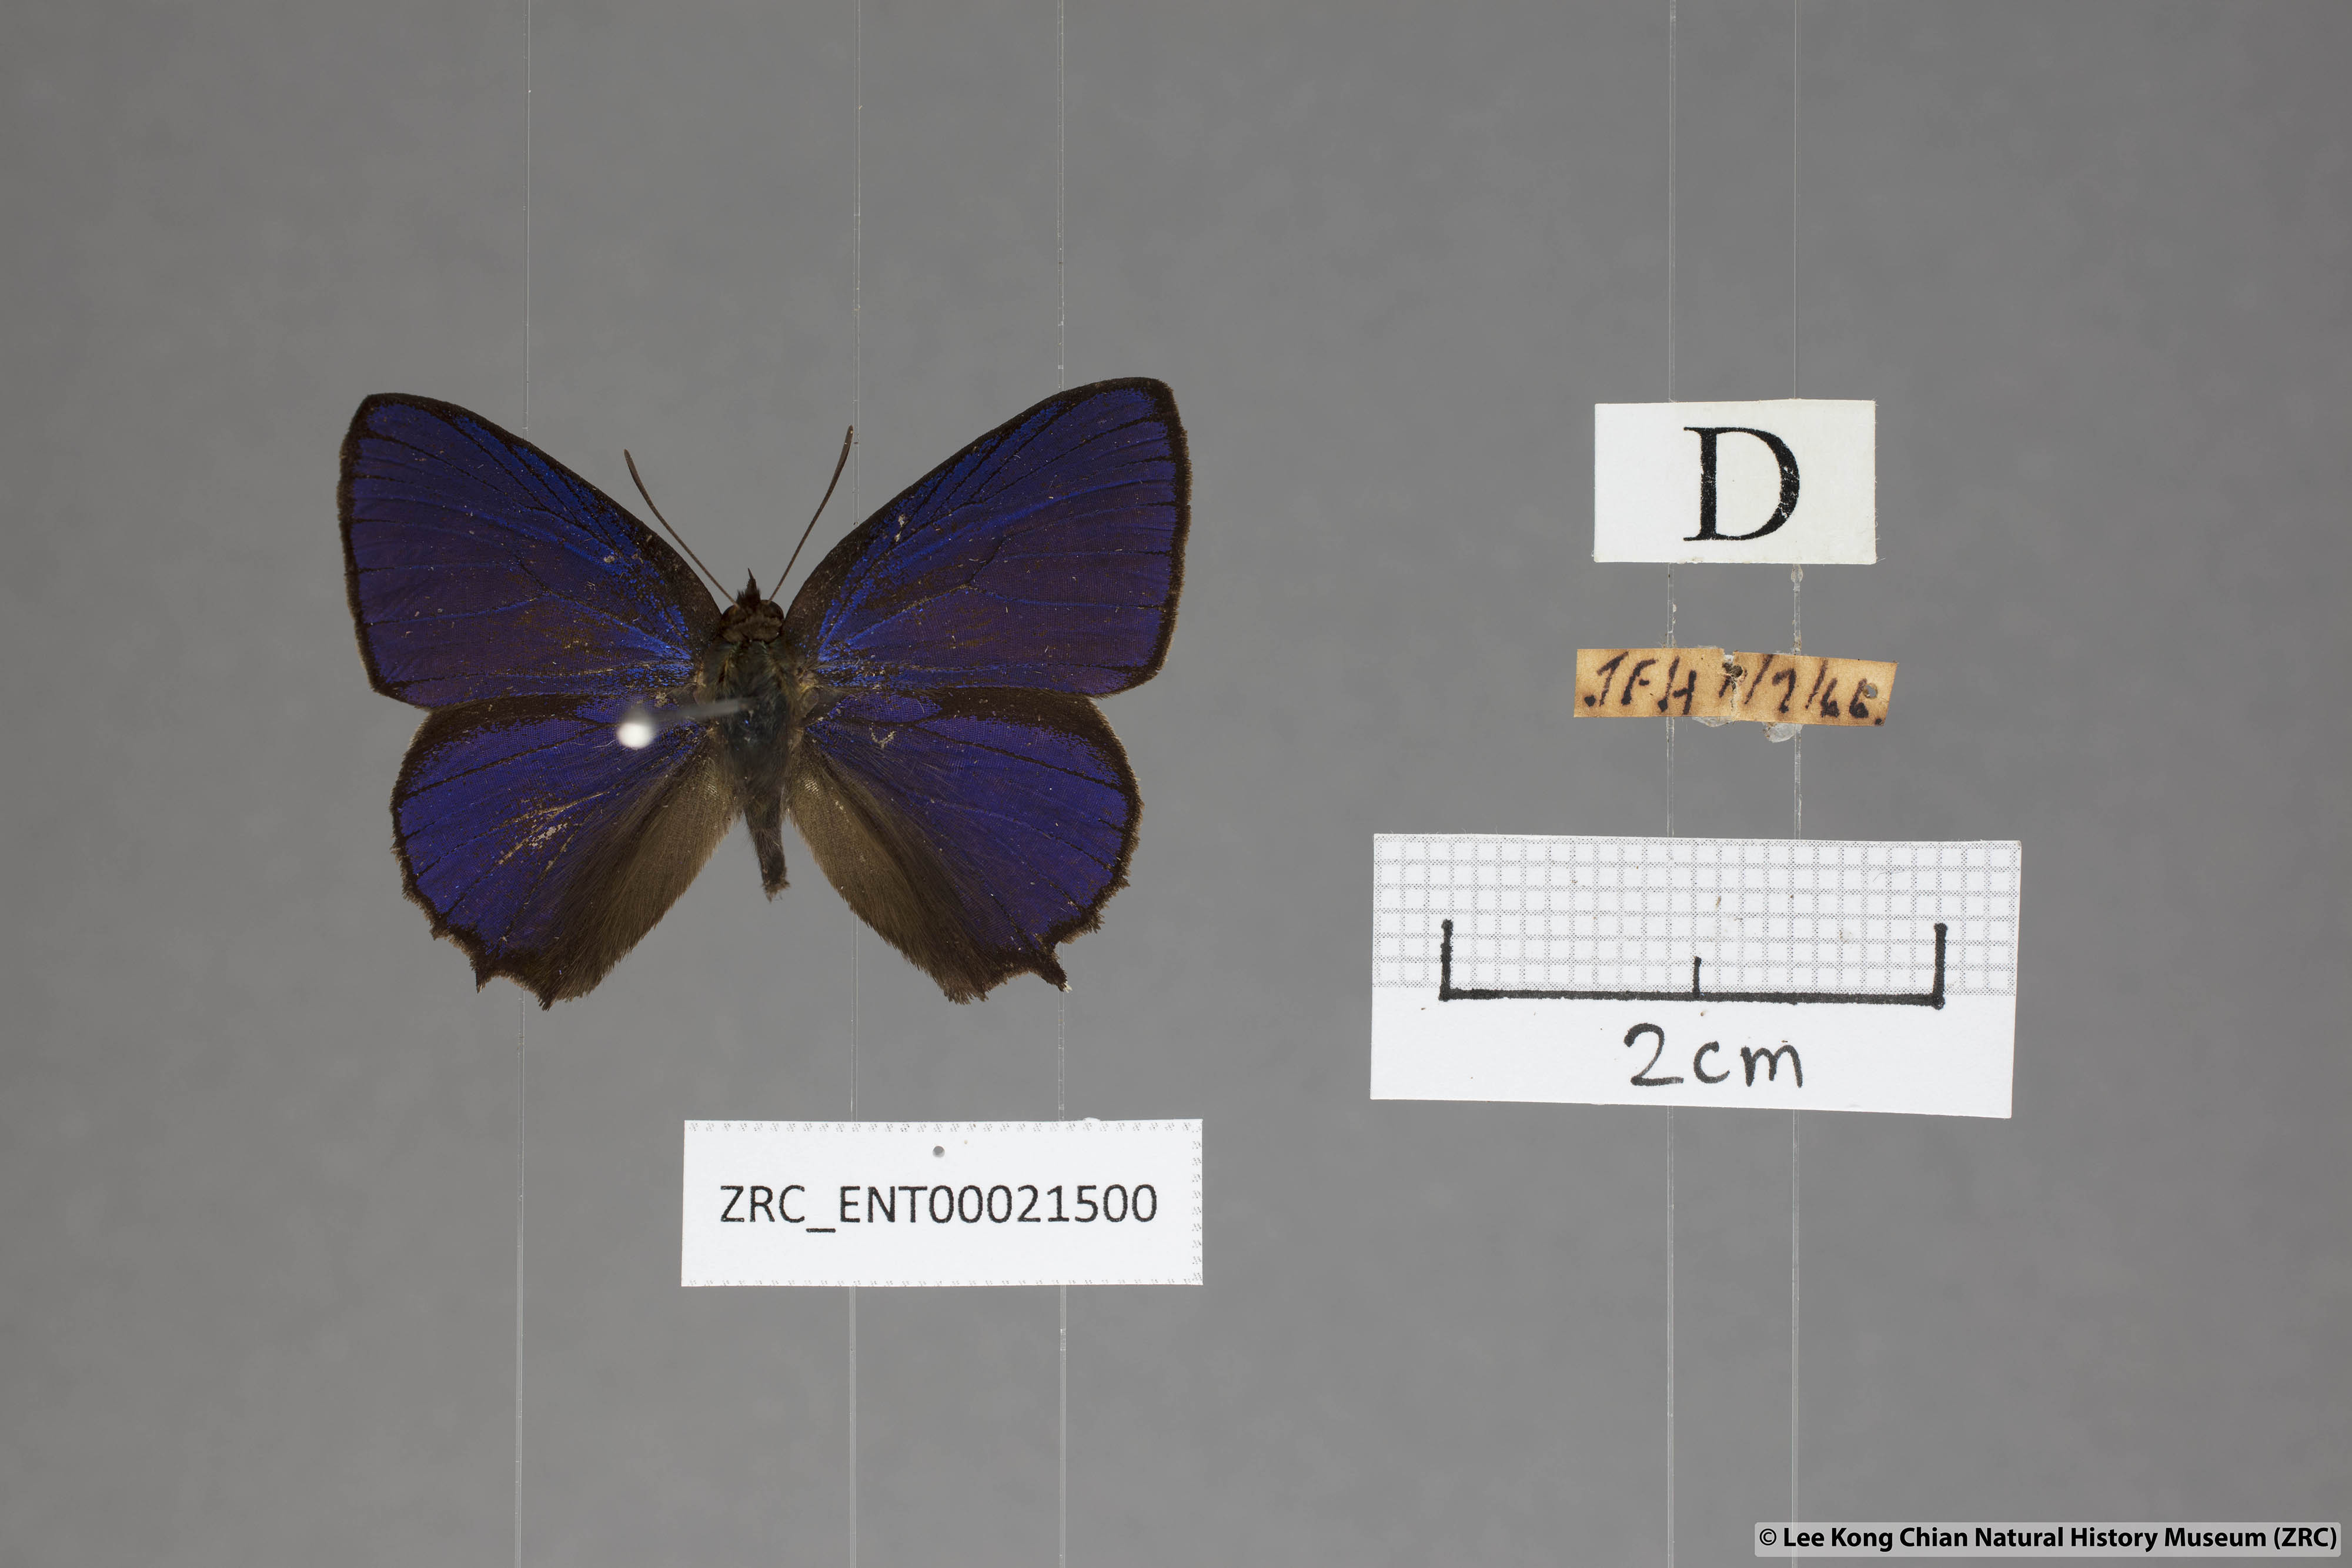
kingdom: Animalia
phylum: Arthropoda
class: Insecta
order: Lepidoptera
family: Lycaenidae
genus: Flos
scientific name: Flos
